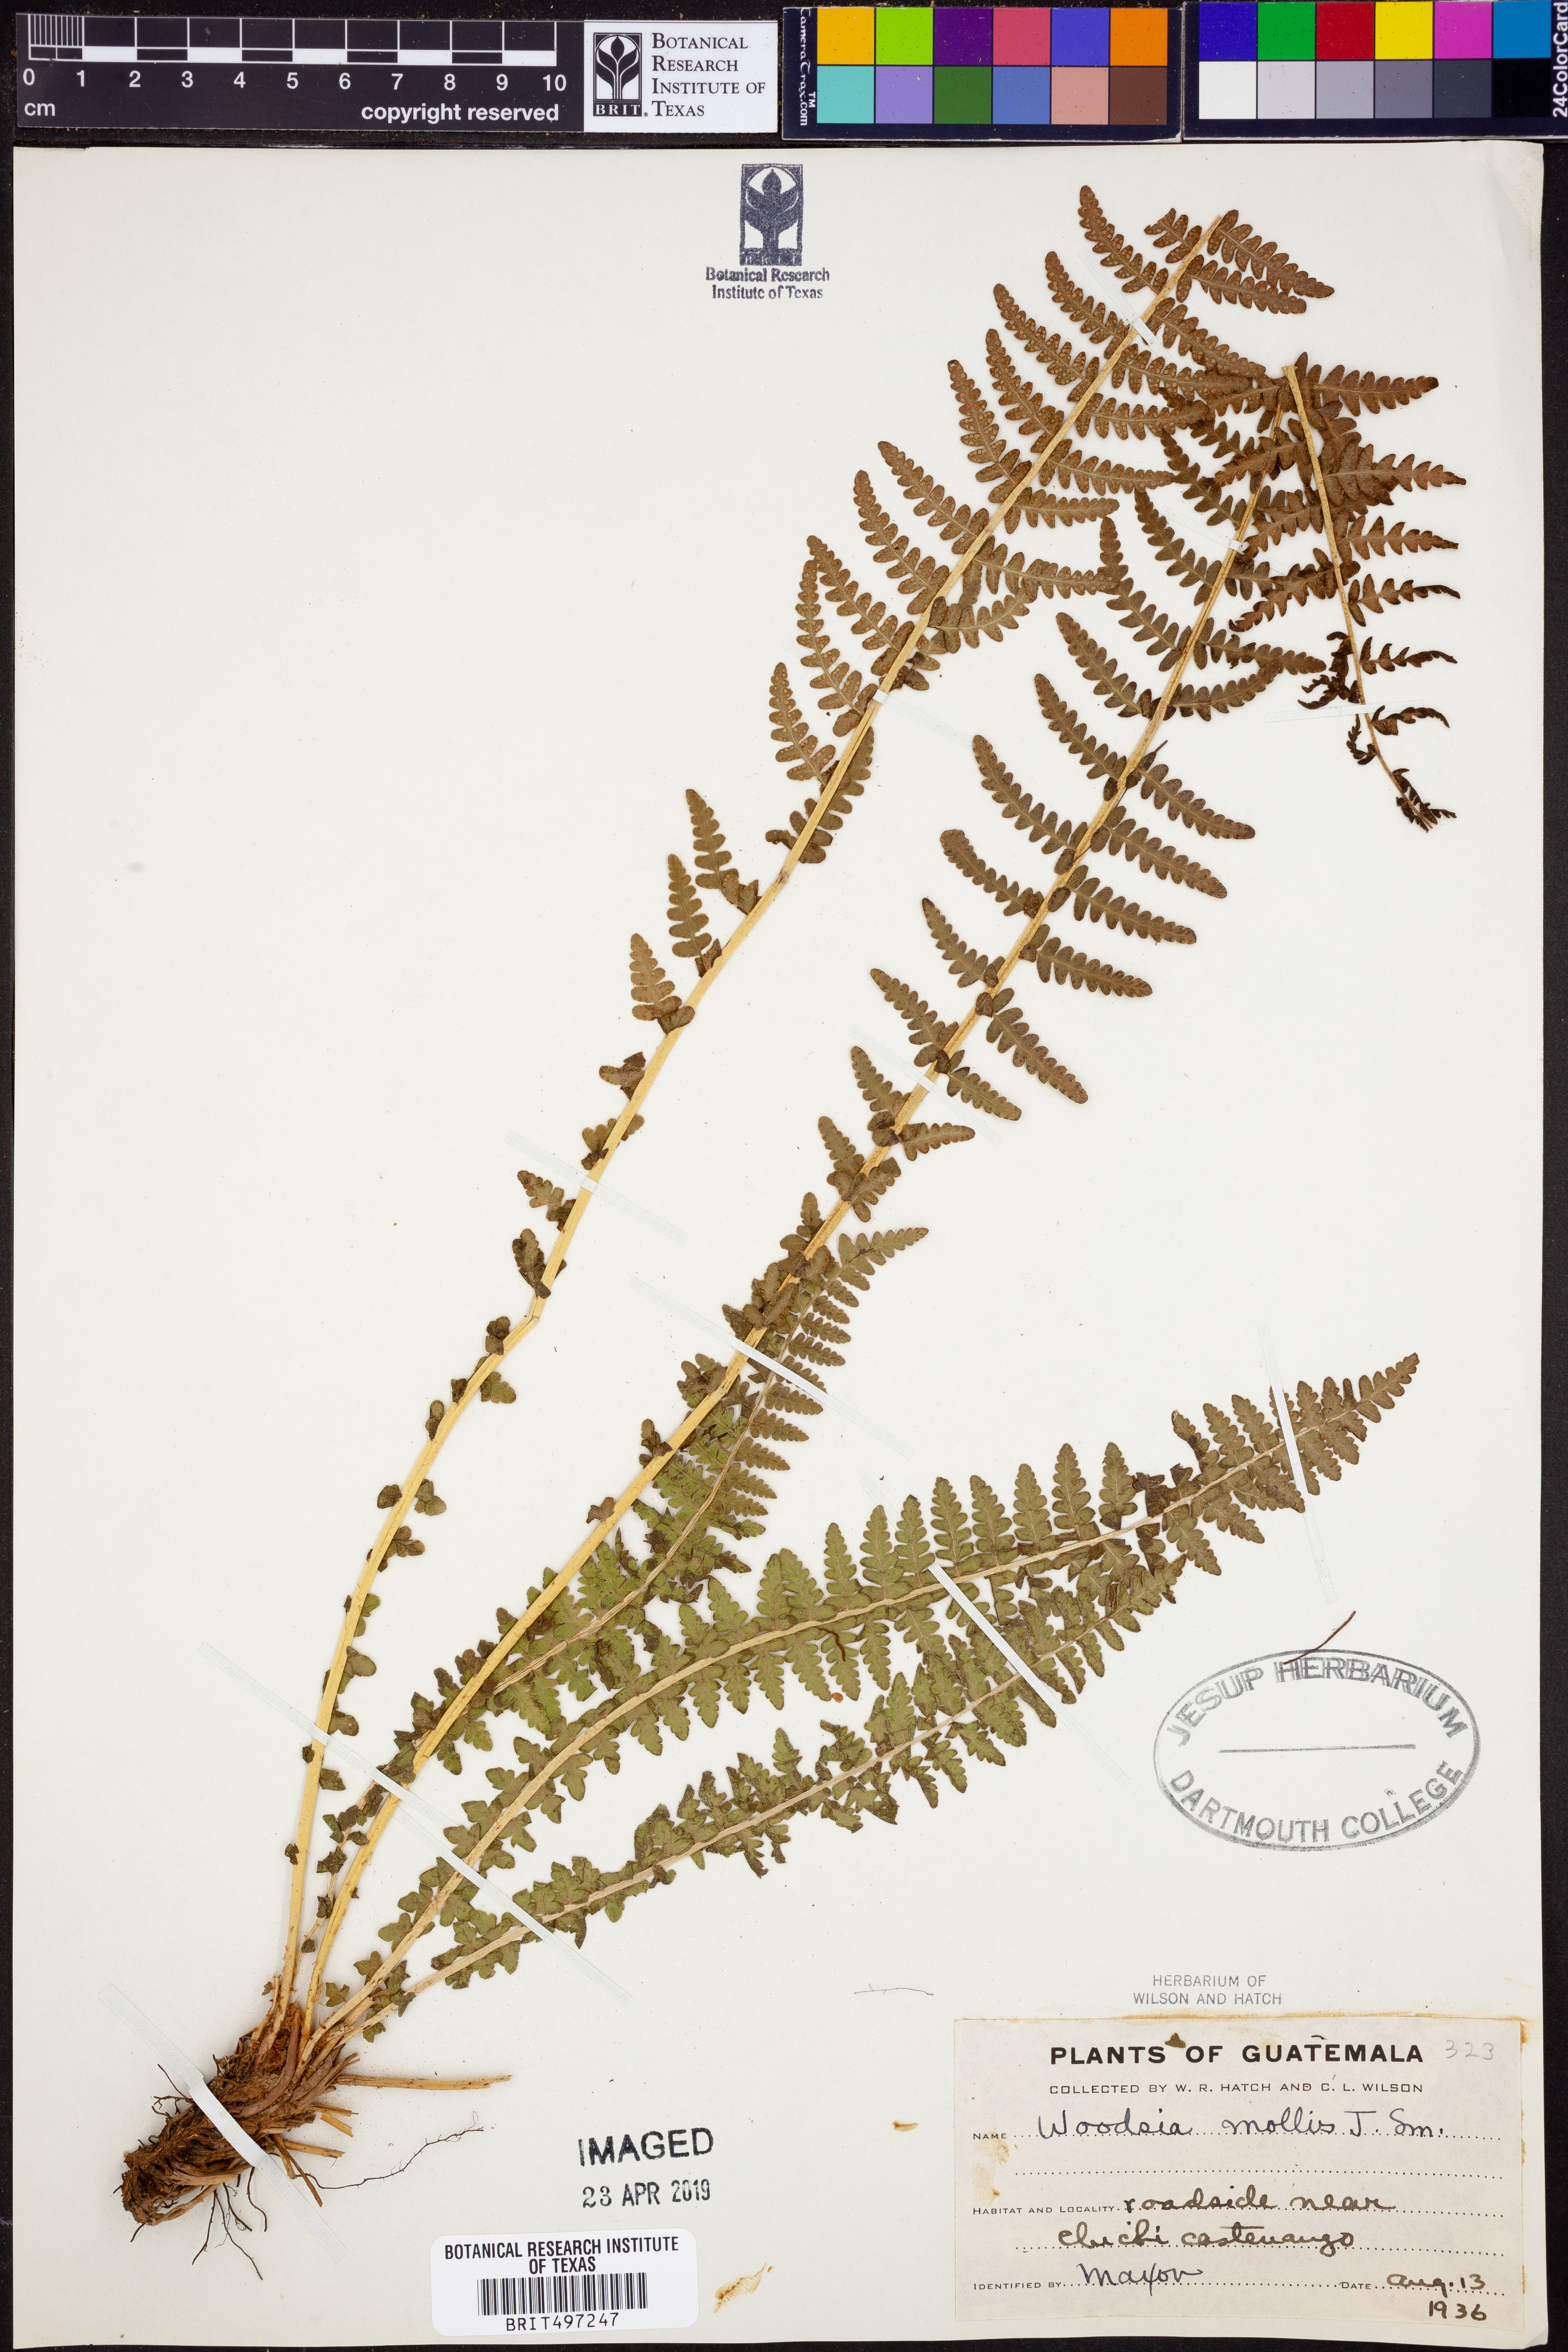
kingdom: Plantae
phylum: Tracheophyta
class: Polypodiopsida
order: Polypodiales
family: Woodsiaceae
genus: Physematium
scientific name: Physematium molle
